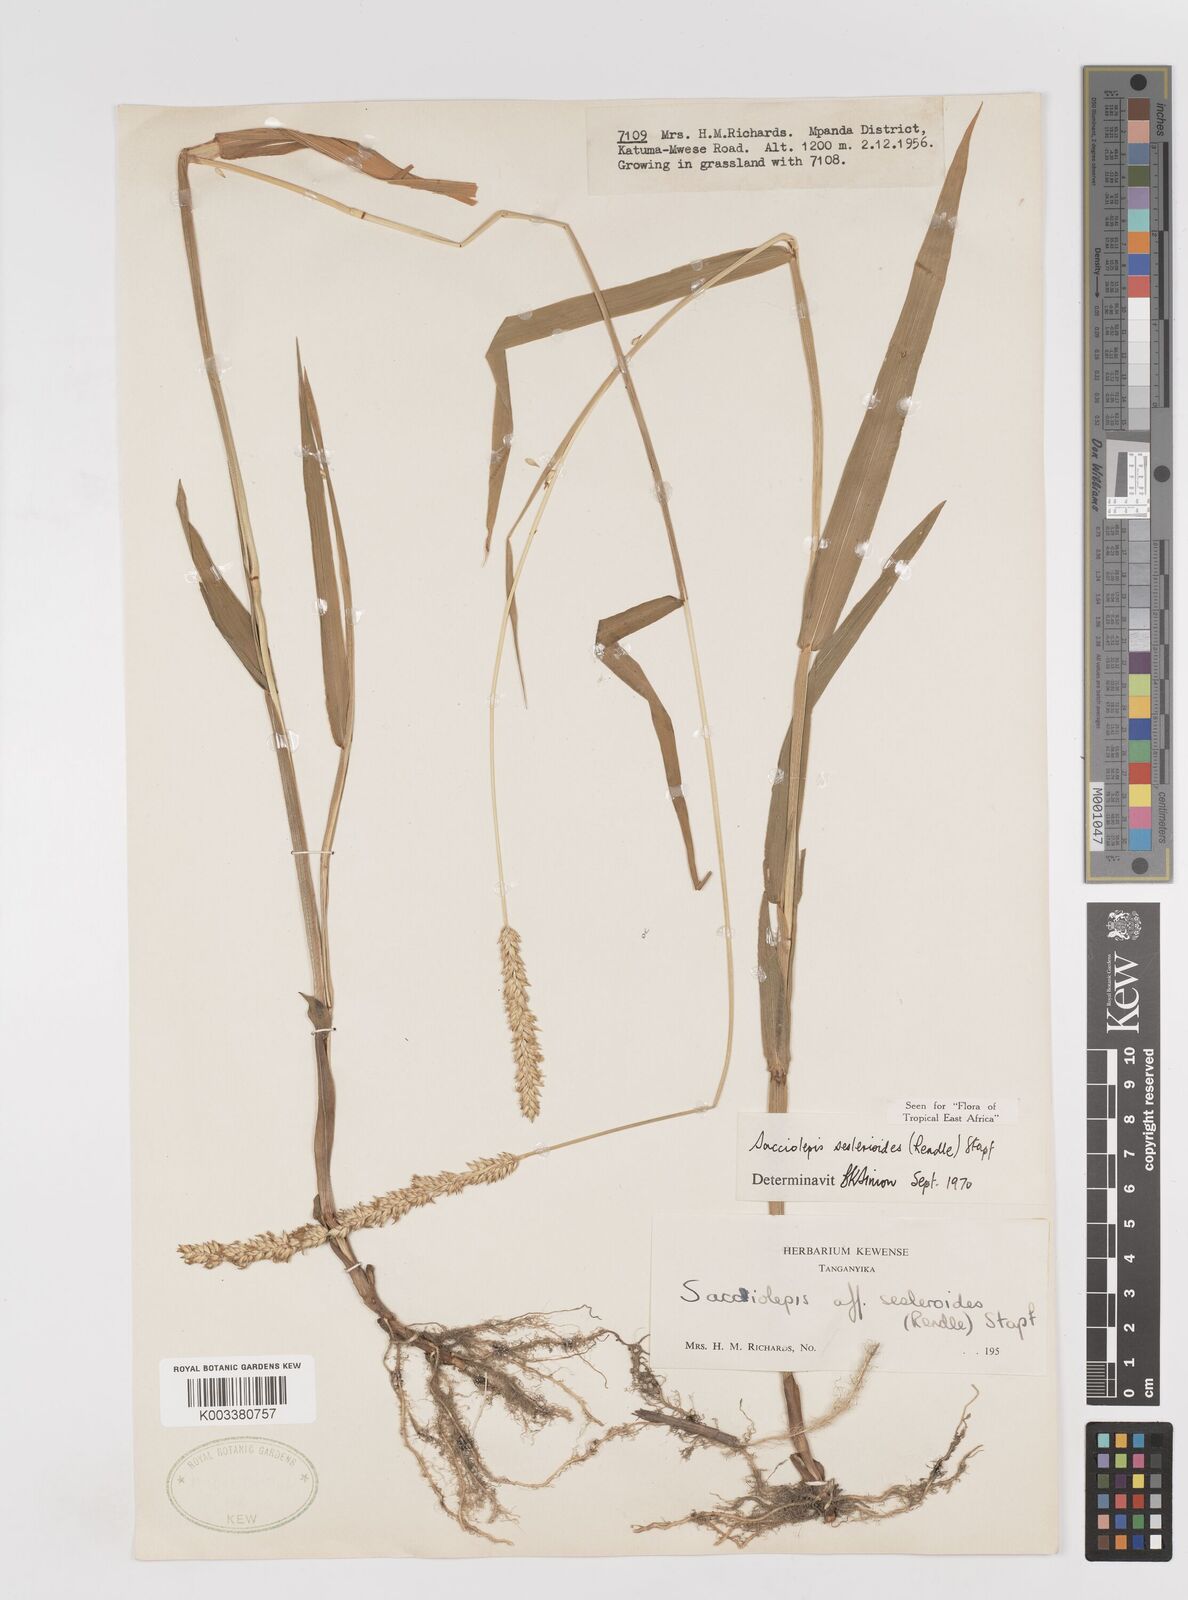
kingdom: Plantae
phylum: Tracheophyta
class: Liliopsida
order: Poales
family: Poaceae
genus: Sacciolepis
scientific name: Sacciolepis seslerioides
